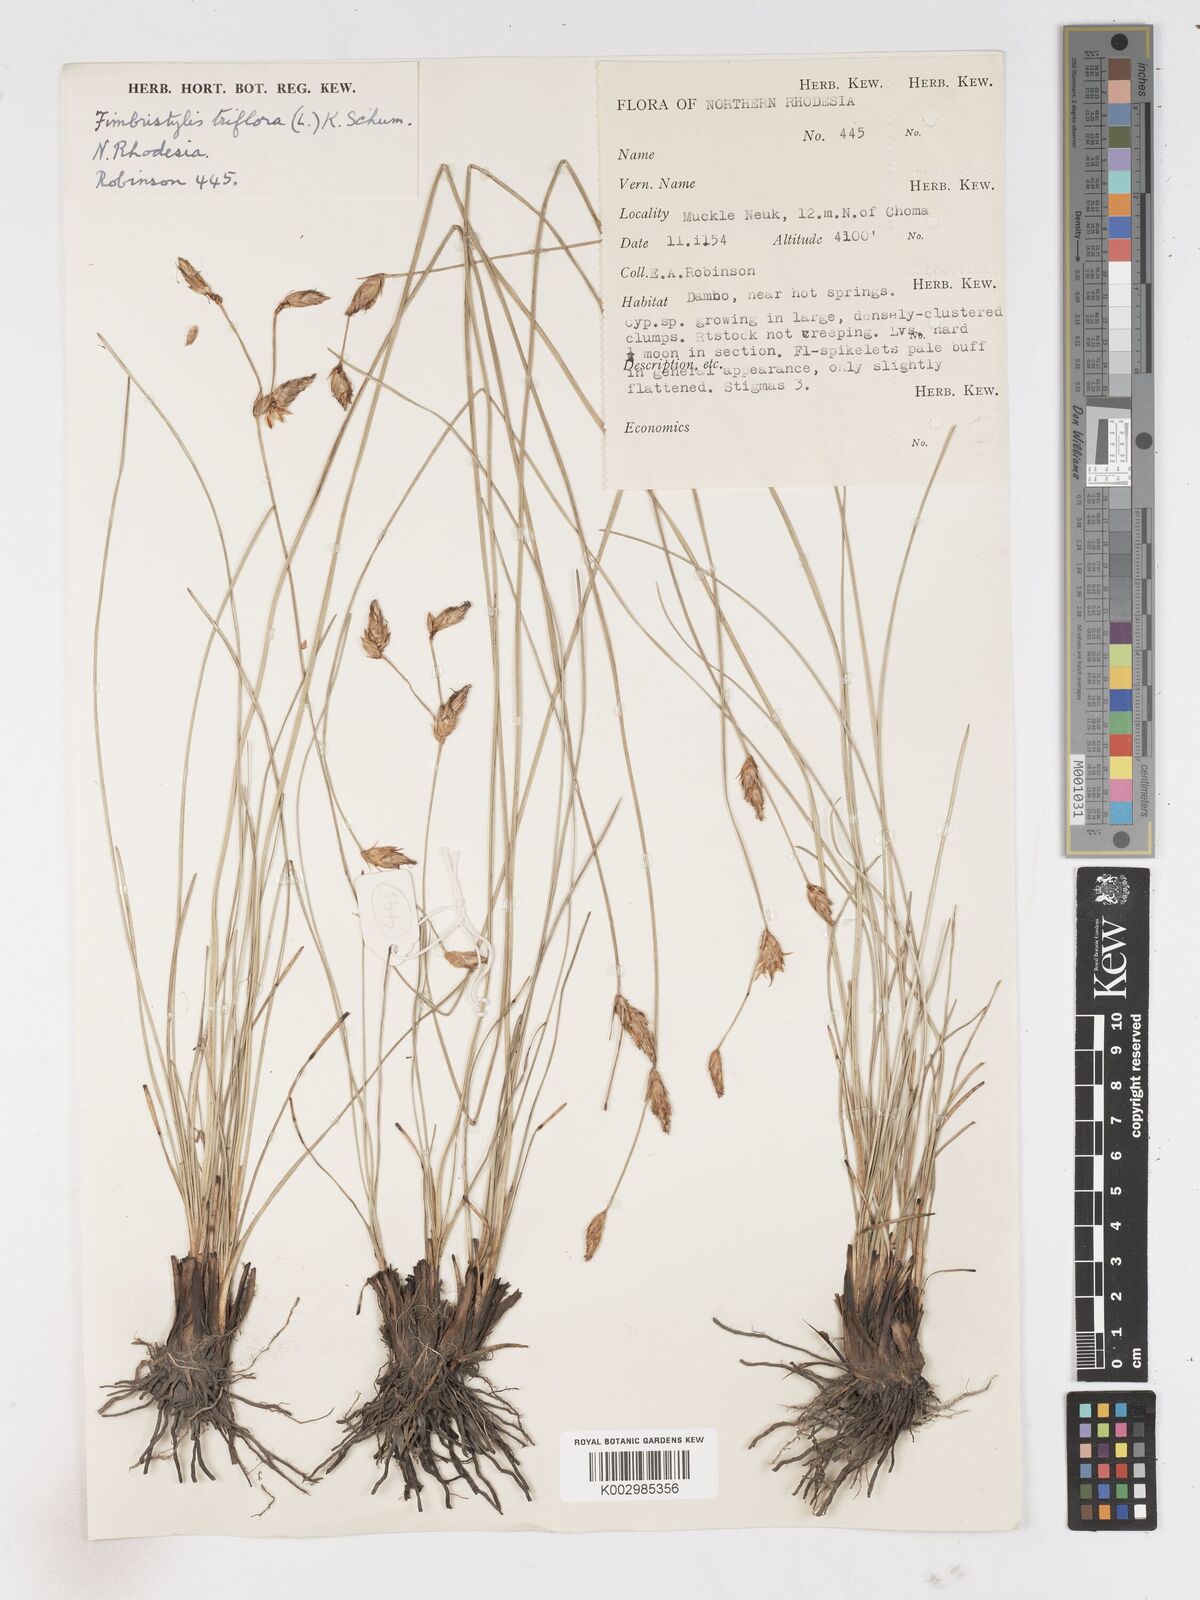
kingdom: Plantae
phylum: Tracheophyta
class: Liliopsida
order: Poales
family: Cyperaceae
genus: Abildgaardia
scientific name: Abildgaardia triflora
